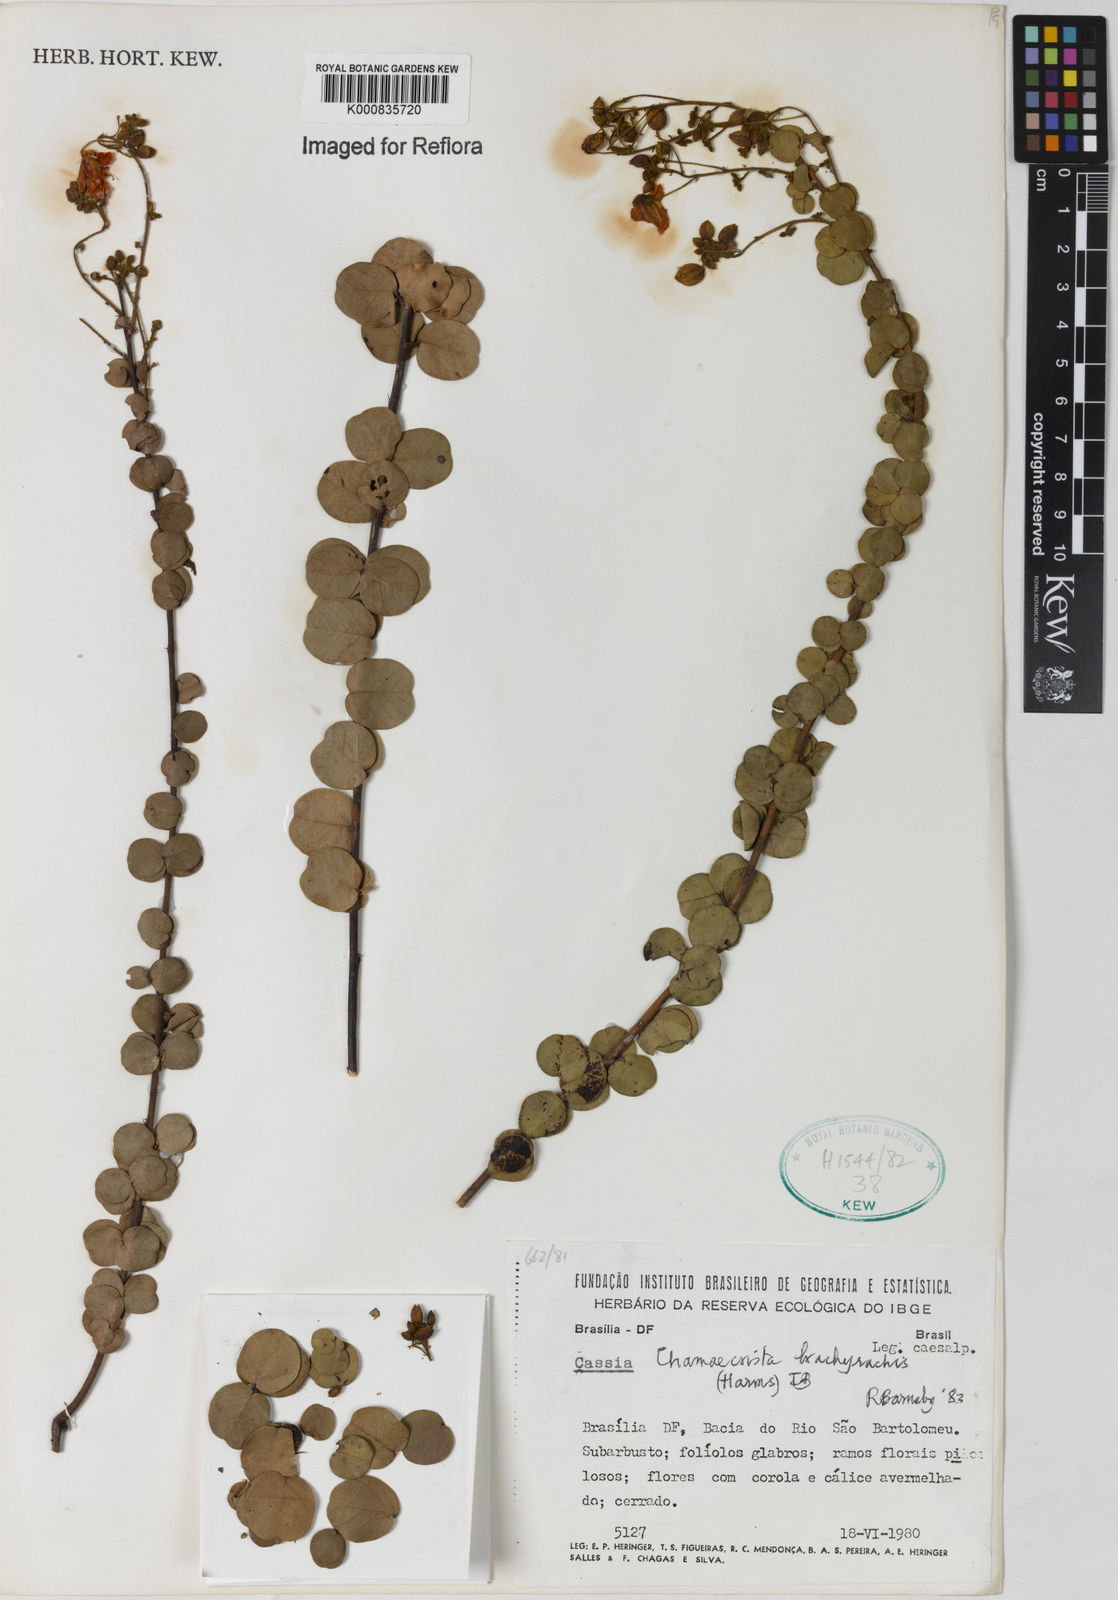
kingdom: Plantae
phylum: Tracheophyta
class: Magnoliopsida
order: Fabales
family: Fabaceae
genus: Chamaecrista
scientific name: Chamaecrista brachyrachis
